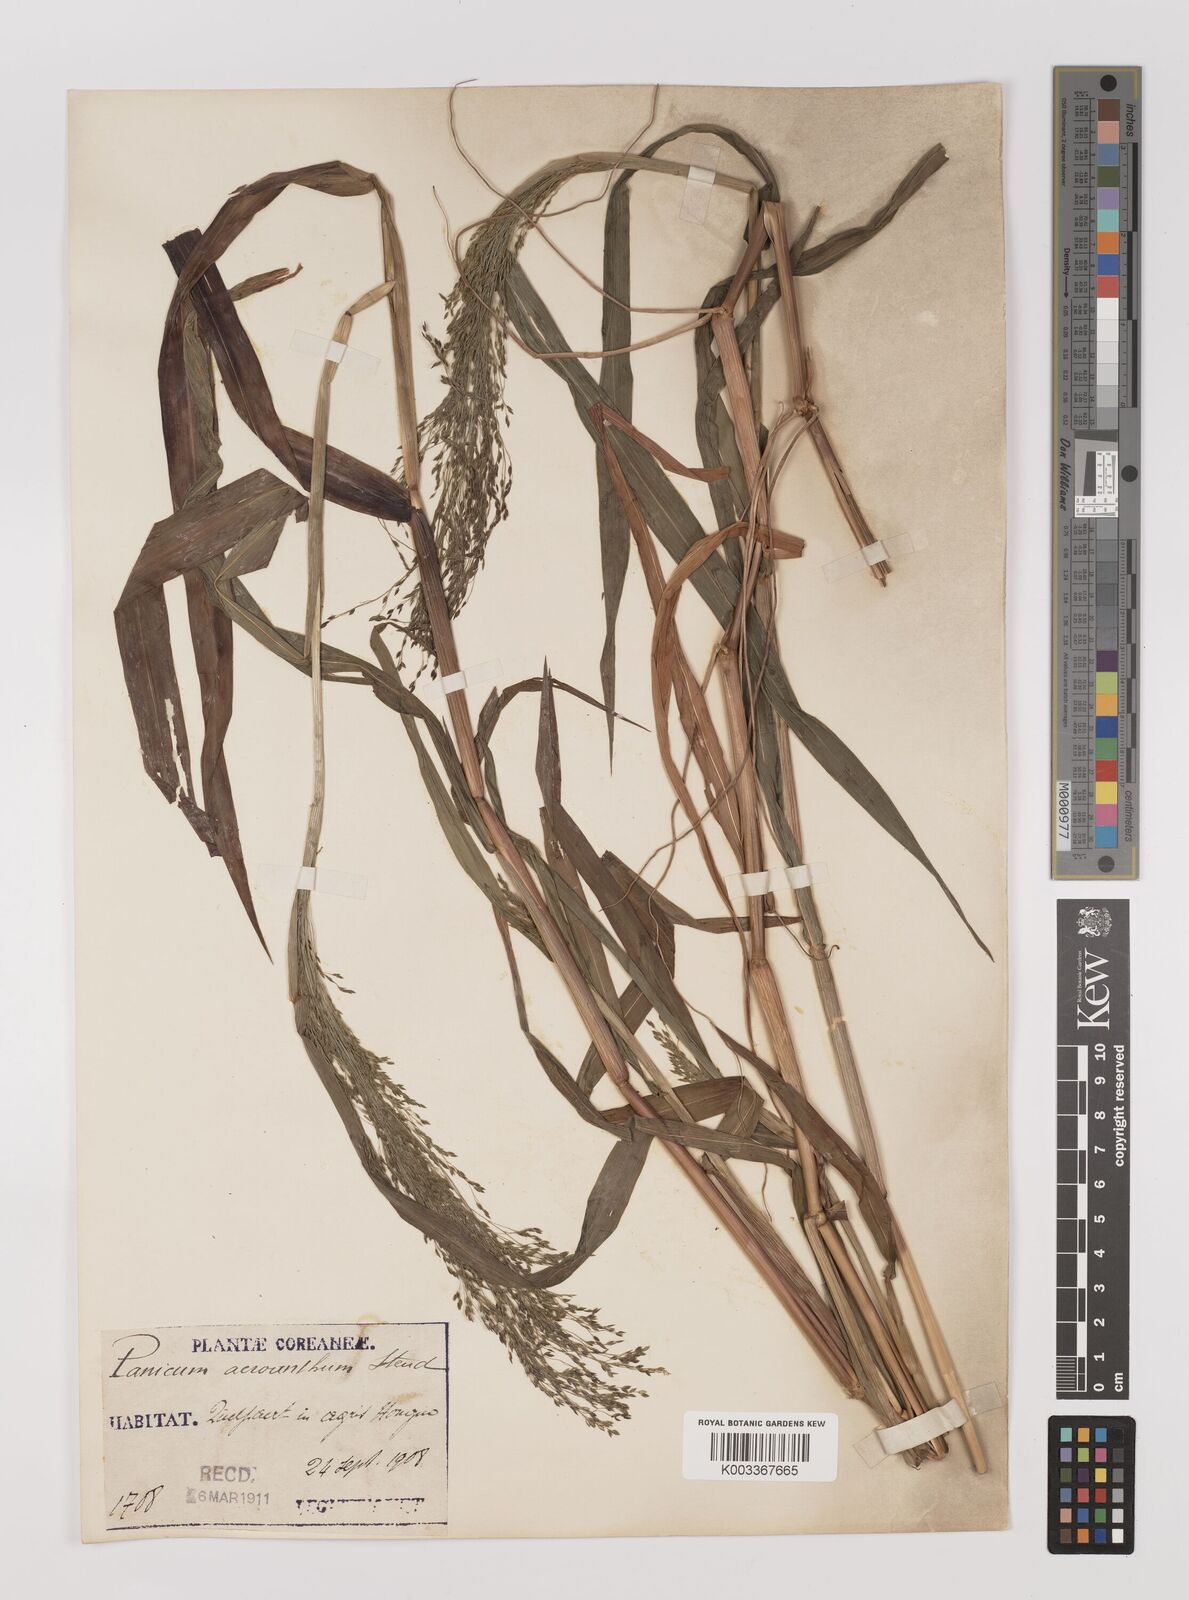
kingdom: Plantae
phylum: Tracheophyta
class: Liliopsida
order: Poales
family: Poaceae
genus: Panicum
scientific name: Panicum bisulcatum
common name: Japanese panicgrass
